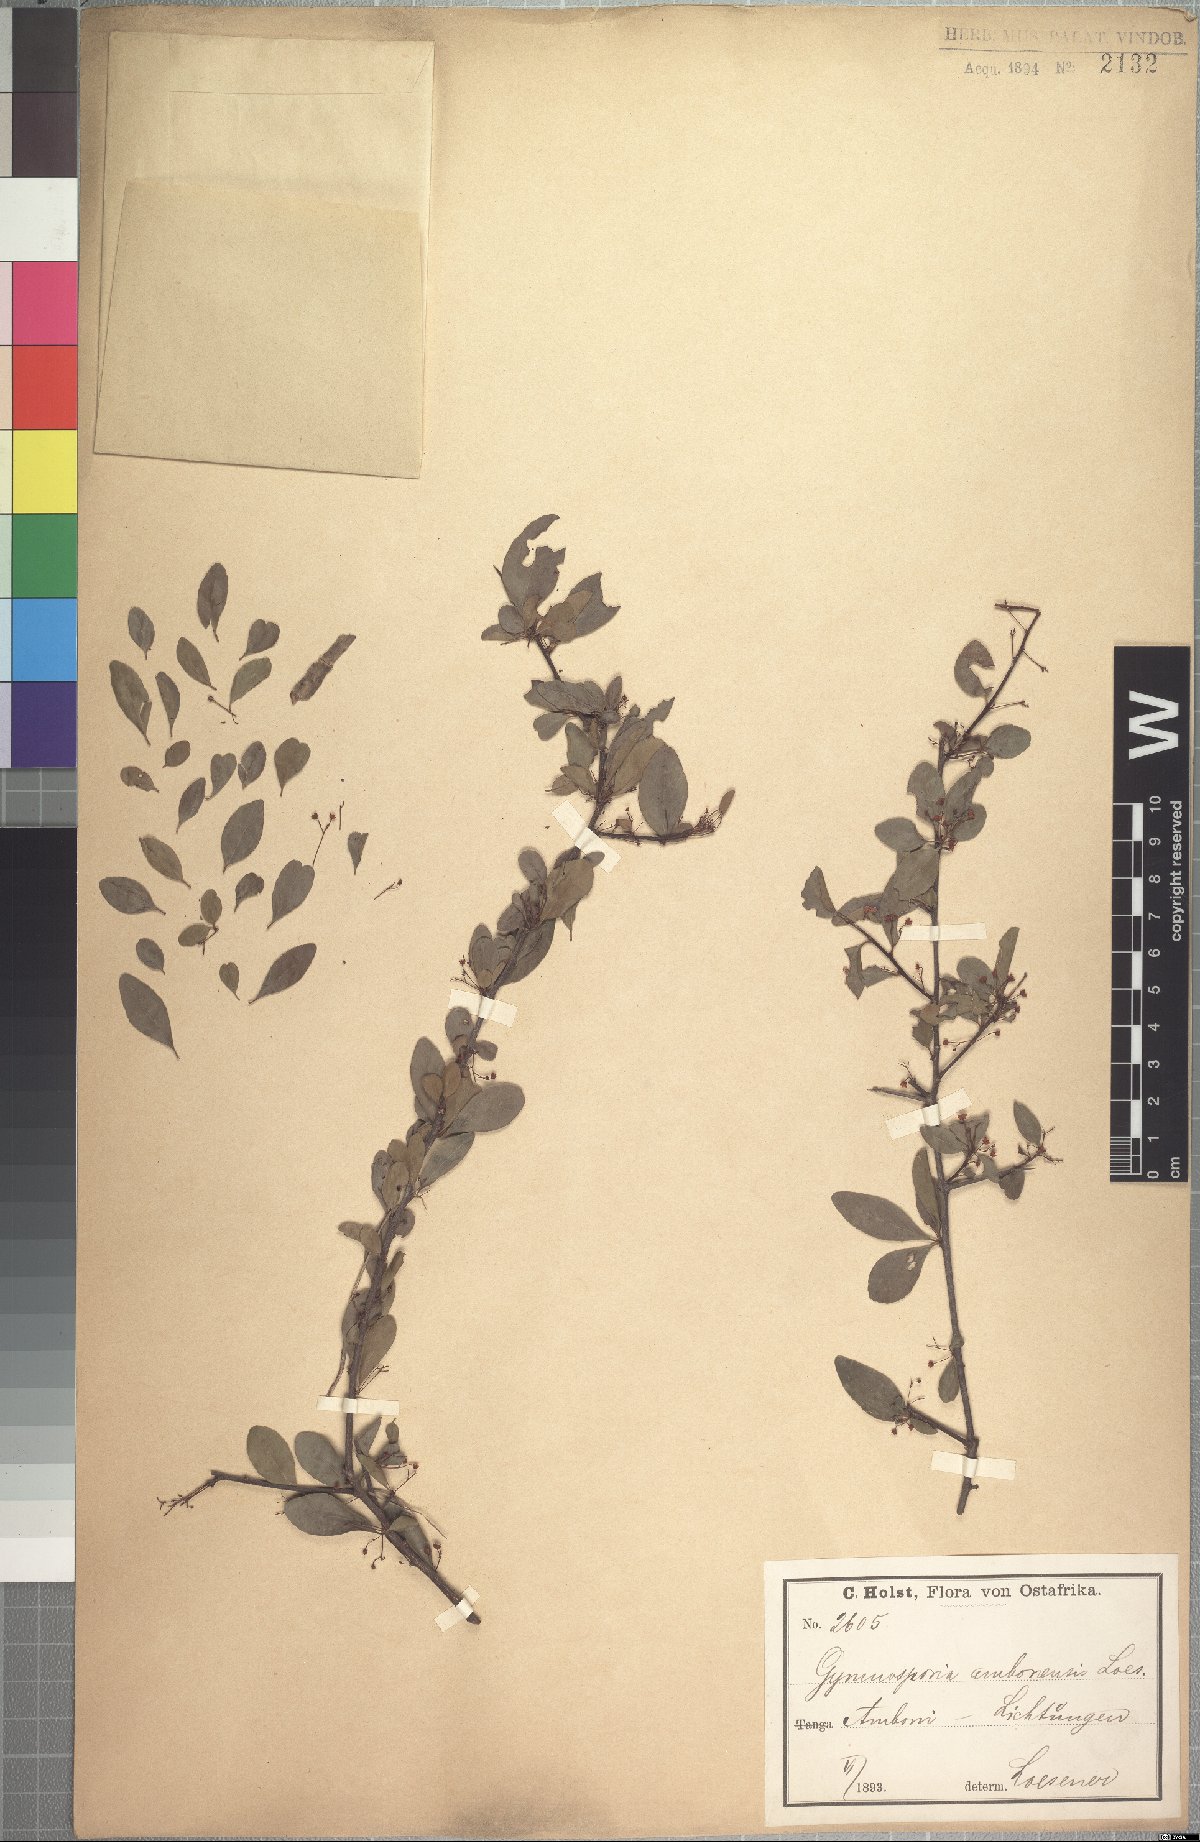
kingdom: Plantae
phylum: Tracheophyta
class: Magnoliopsida
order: Celastrales
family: Celastraceae
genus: Gymnosporia
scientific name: Gymnosporia gracilis
